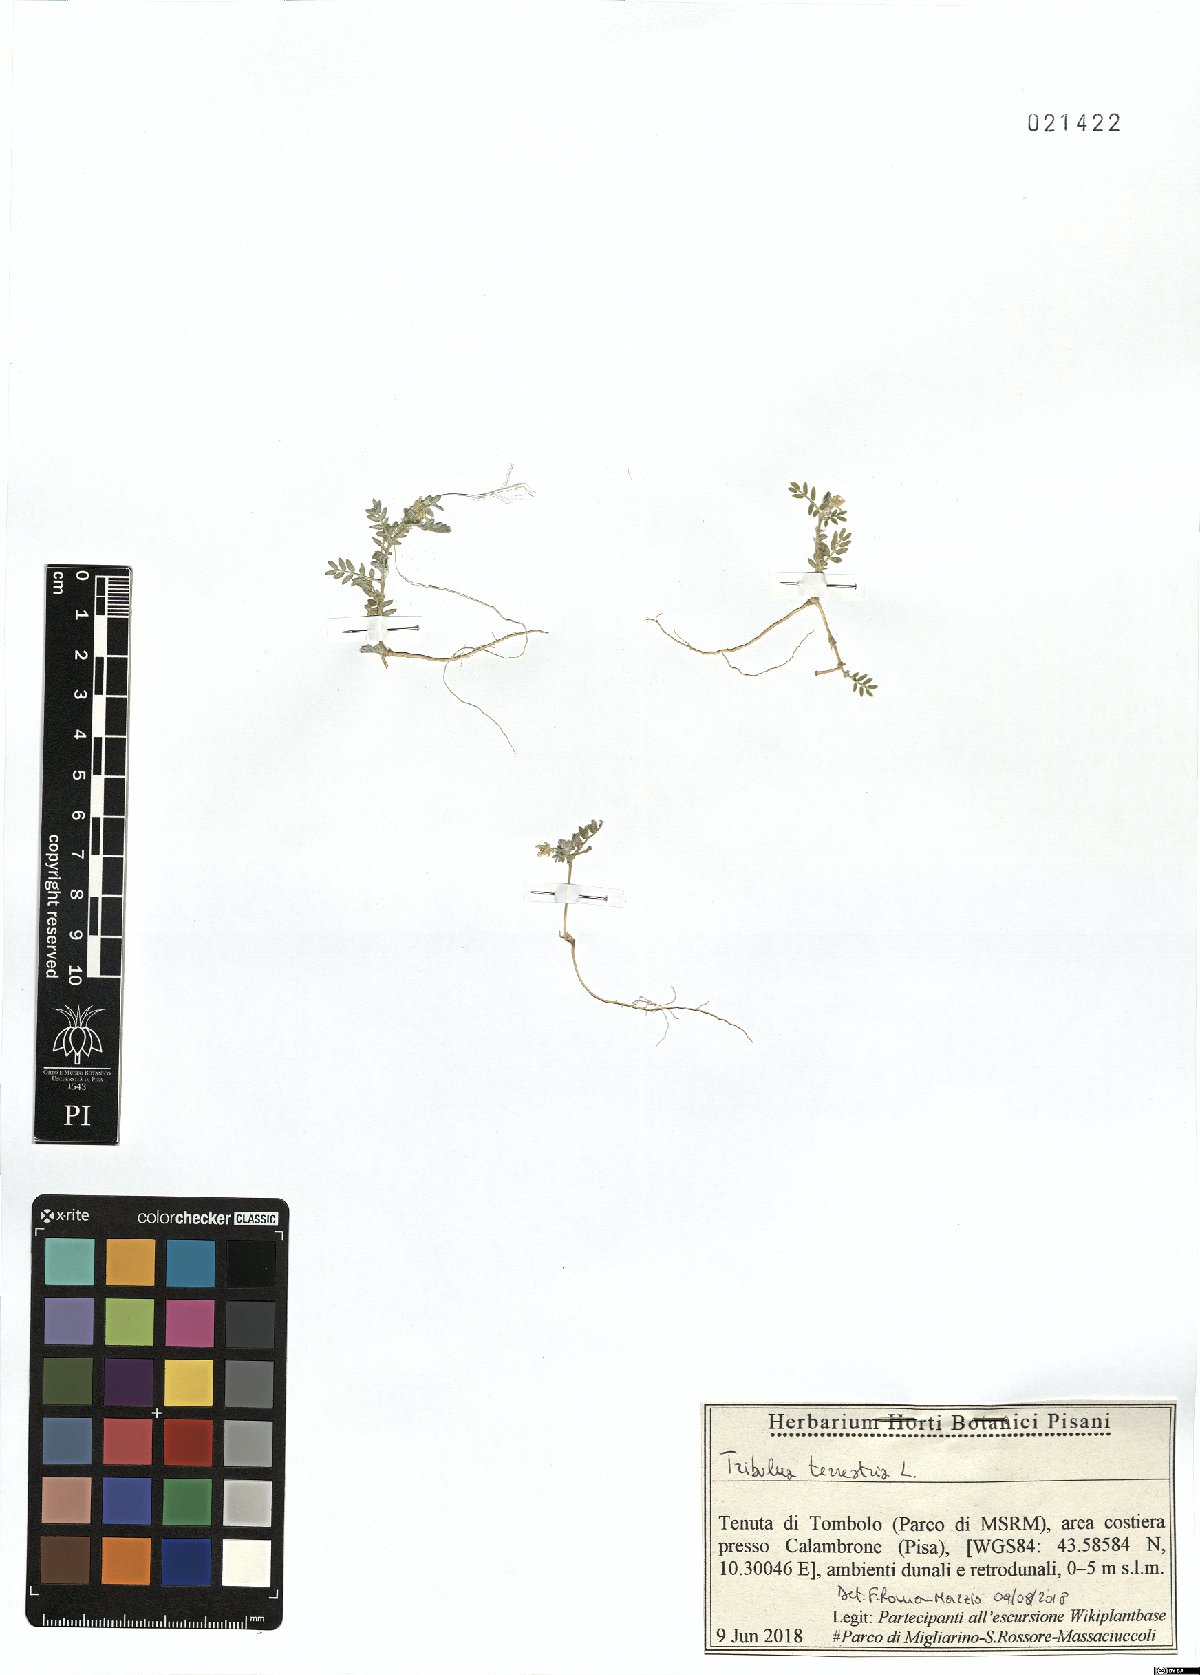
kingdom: Plantae
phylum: Tracheophyta
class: Magnoliopsida
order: Zygophyllales
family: Zygophyllaceae
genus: Tribulus
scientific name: Tribulus terrestris
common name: Puncturevine
